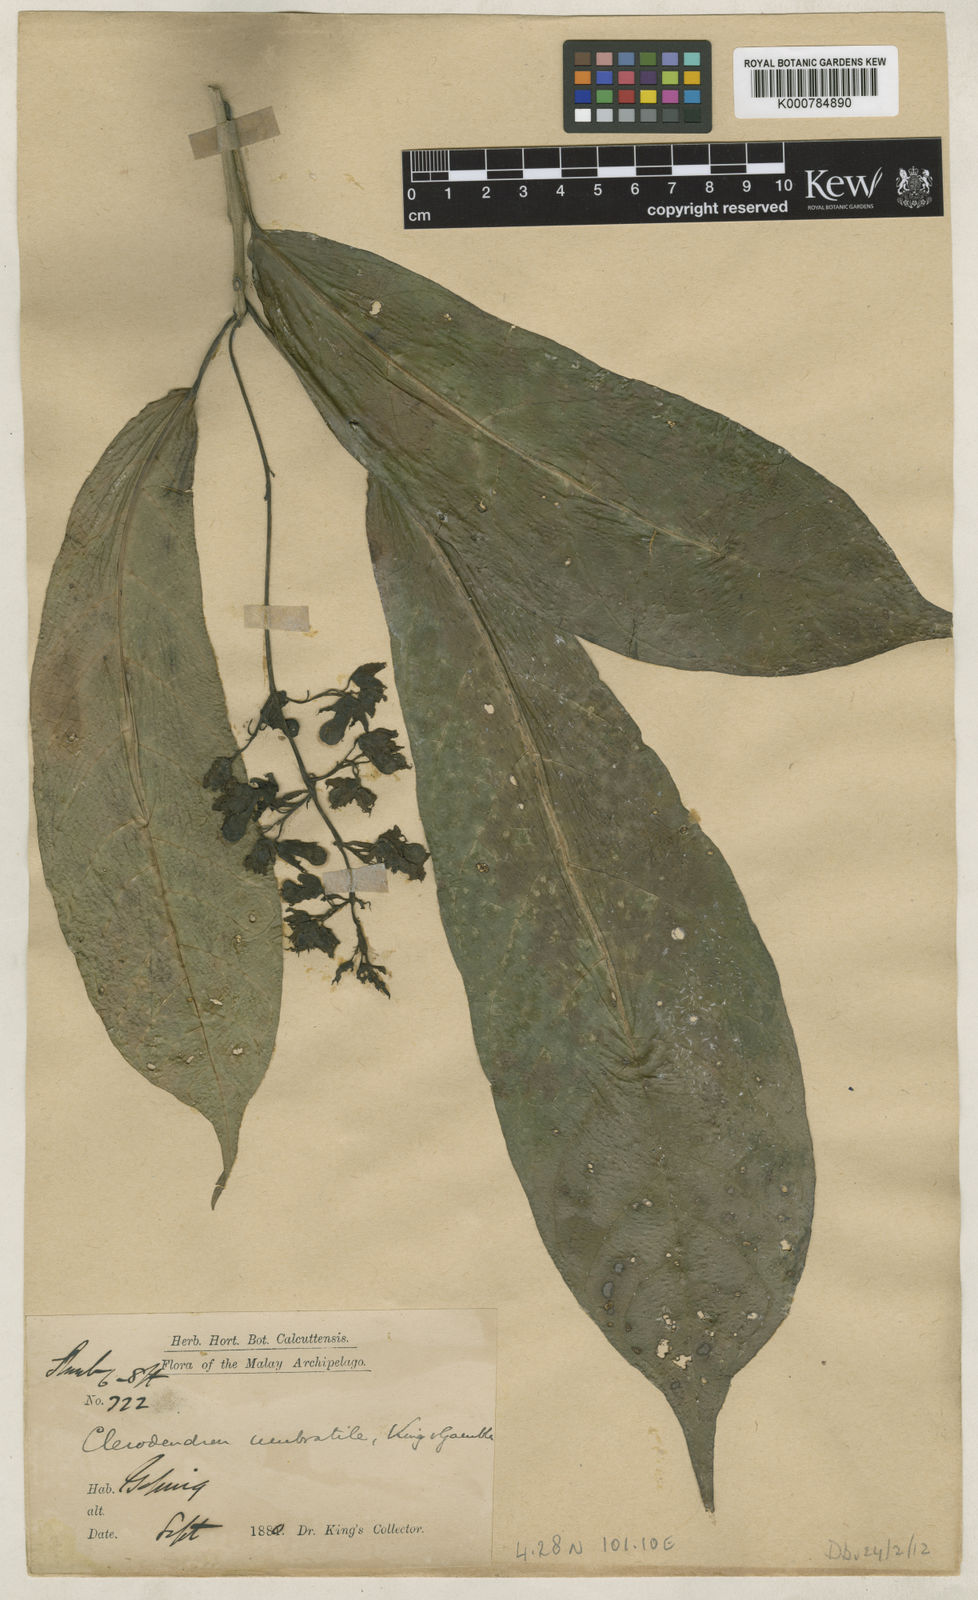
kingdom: Plantae
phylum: Tracheophyta
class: Magnoliopsida
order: Lamiales
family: Lamiaceae
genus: Clerodendrum
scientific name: Clerodendrum umbratile
